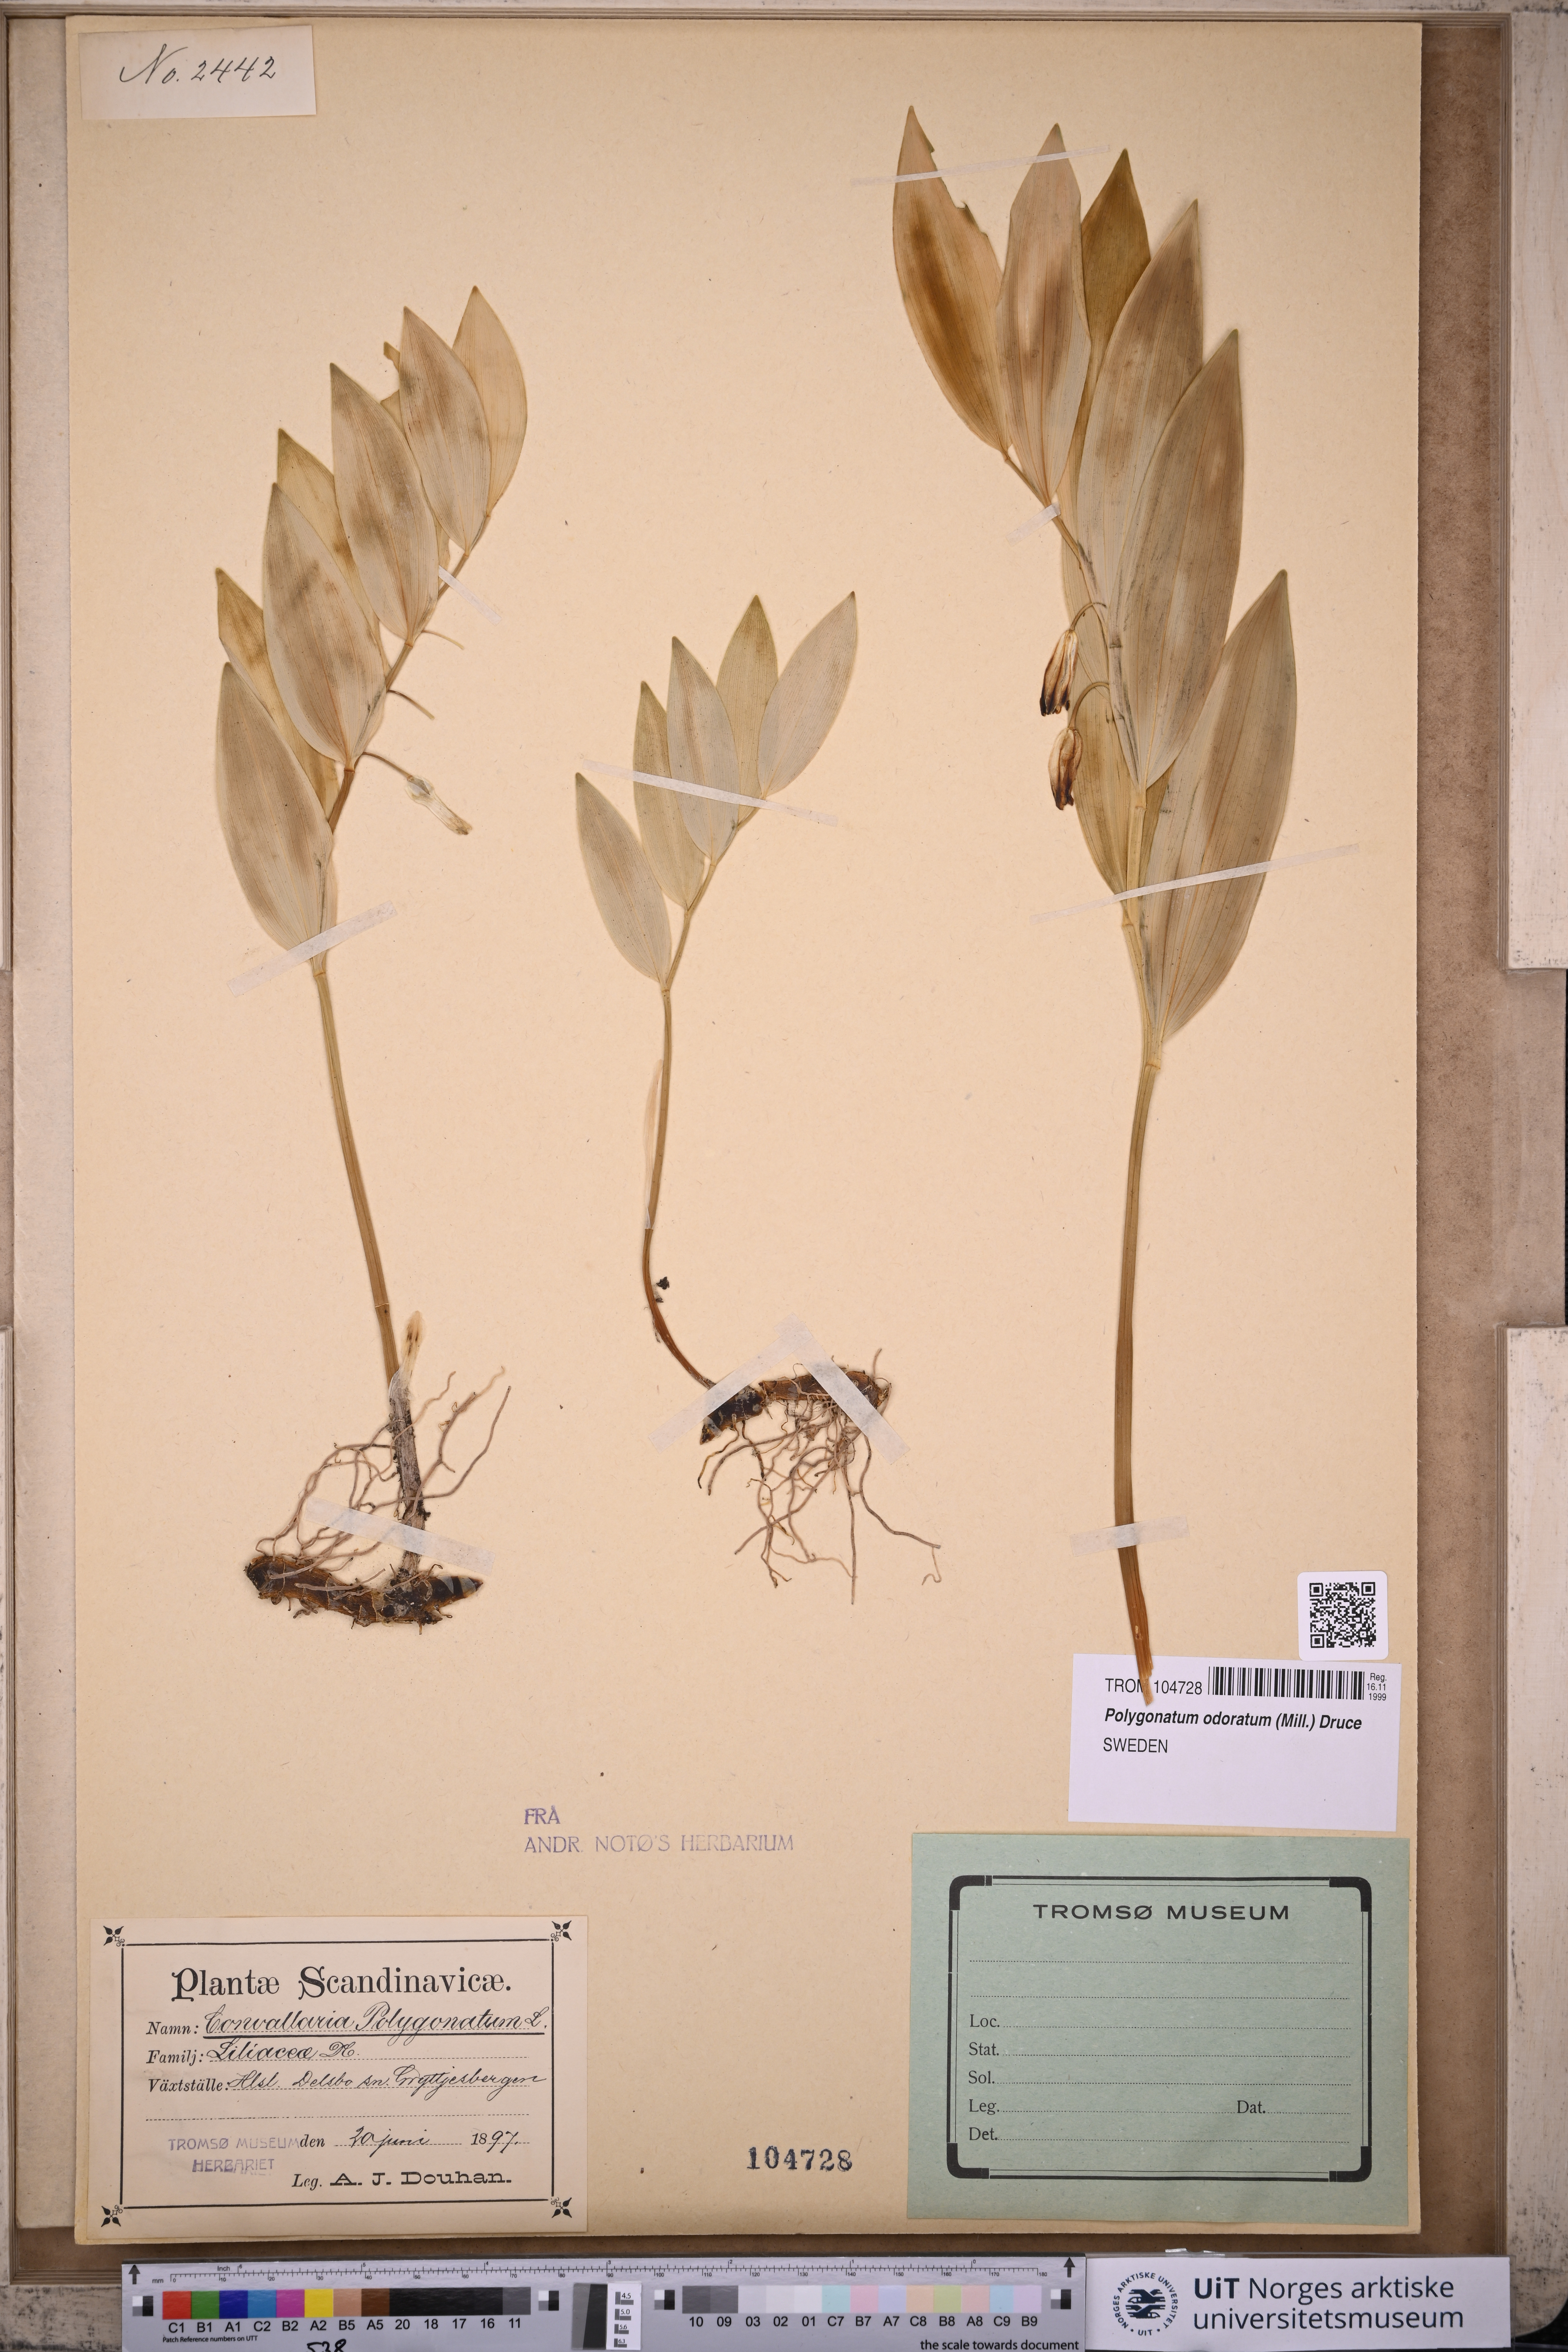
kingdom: Plantae
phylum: Tracheophyta
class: Liliopsida
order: Asparagales
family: Asparagaceae
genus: Polygonatum
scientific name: Polygonatum odoratum
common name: Angular solomon's-seal
